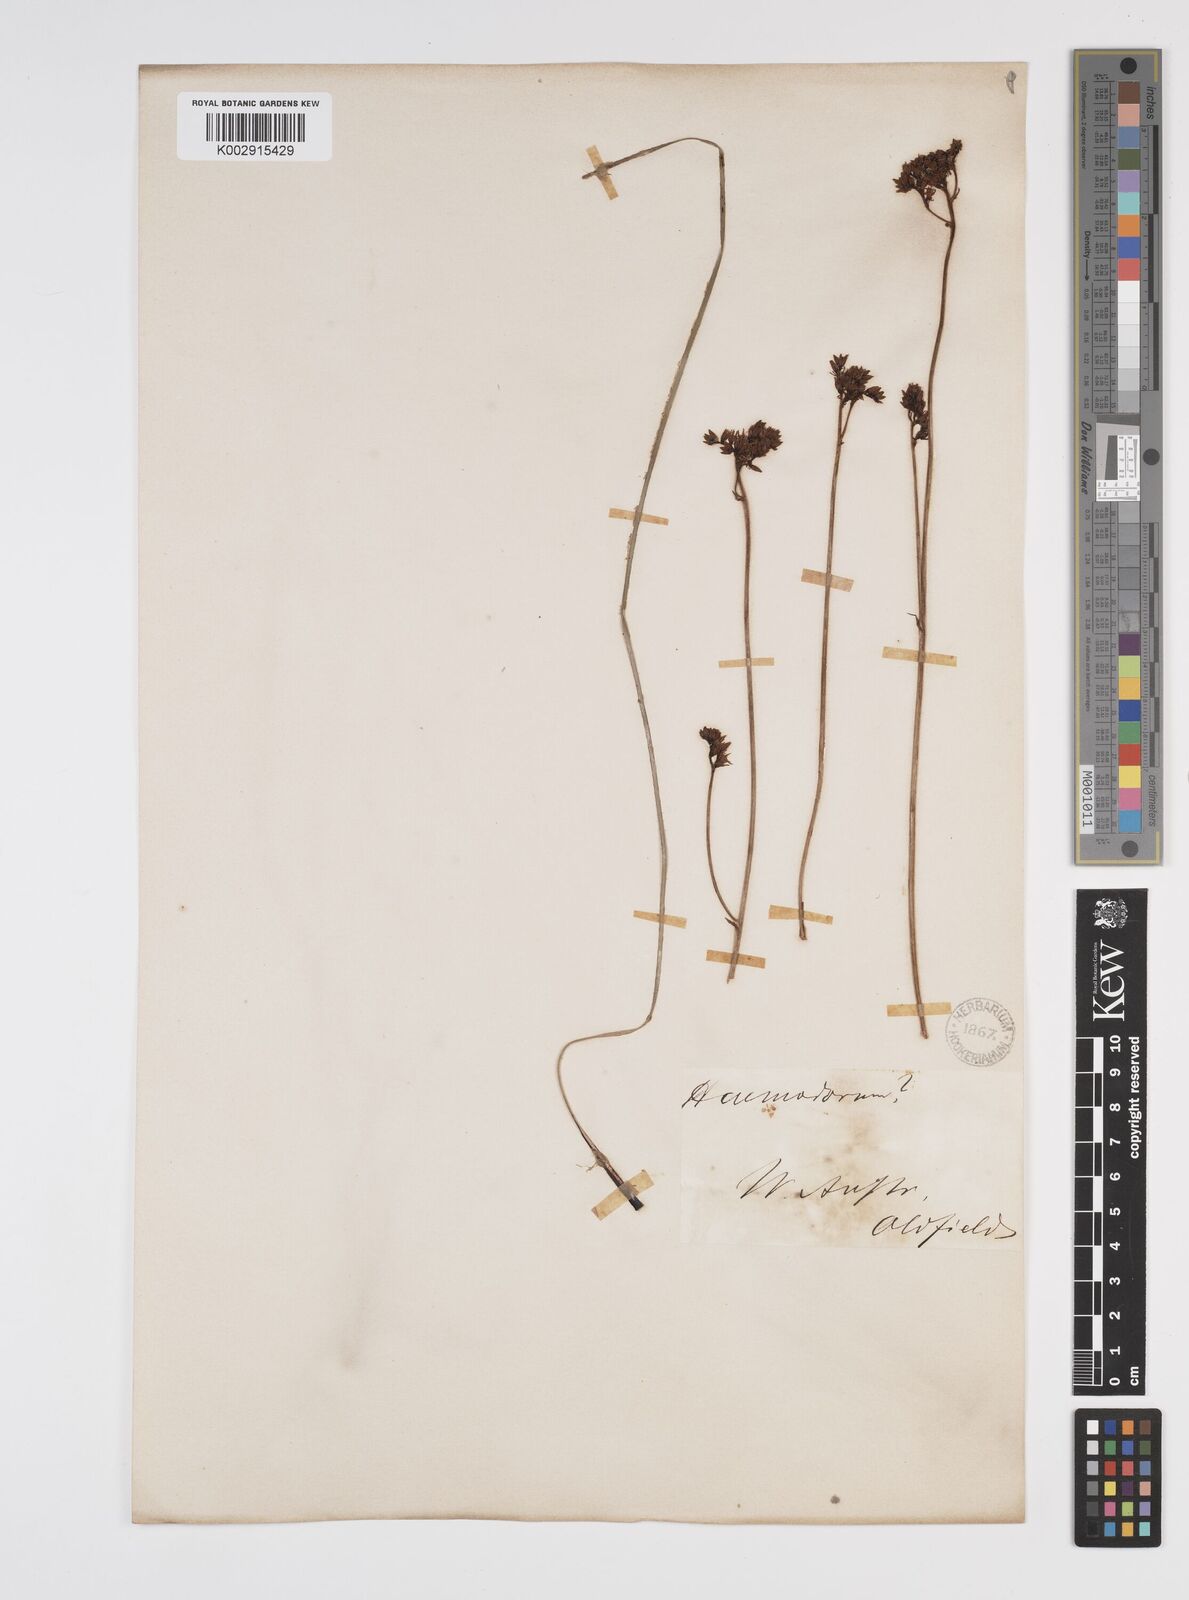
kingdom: Plantae
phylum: Tracheophyta
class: Liliopsida
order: Commelinales
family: Haemodoraceae
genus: Phlebocarya
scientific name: Phlebocarya ciliata
